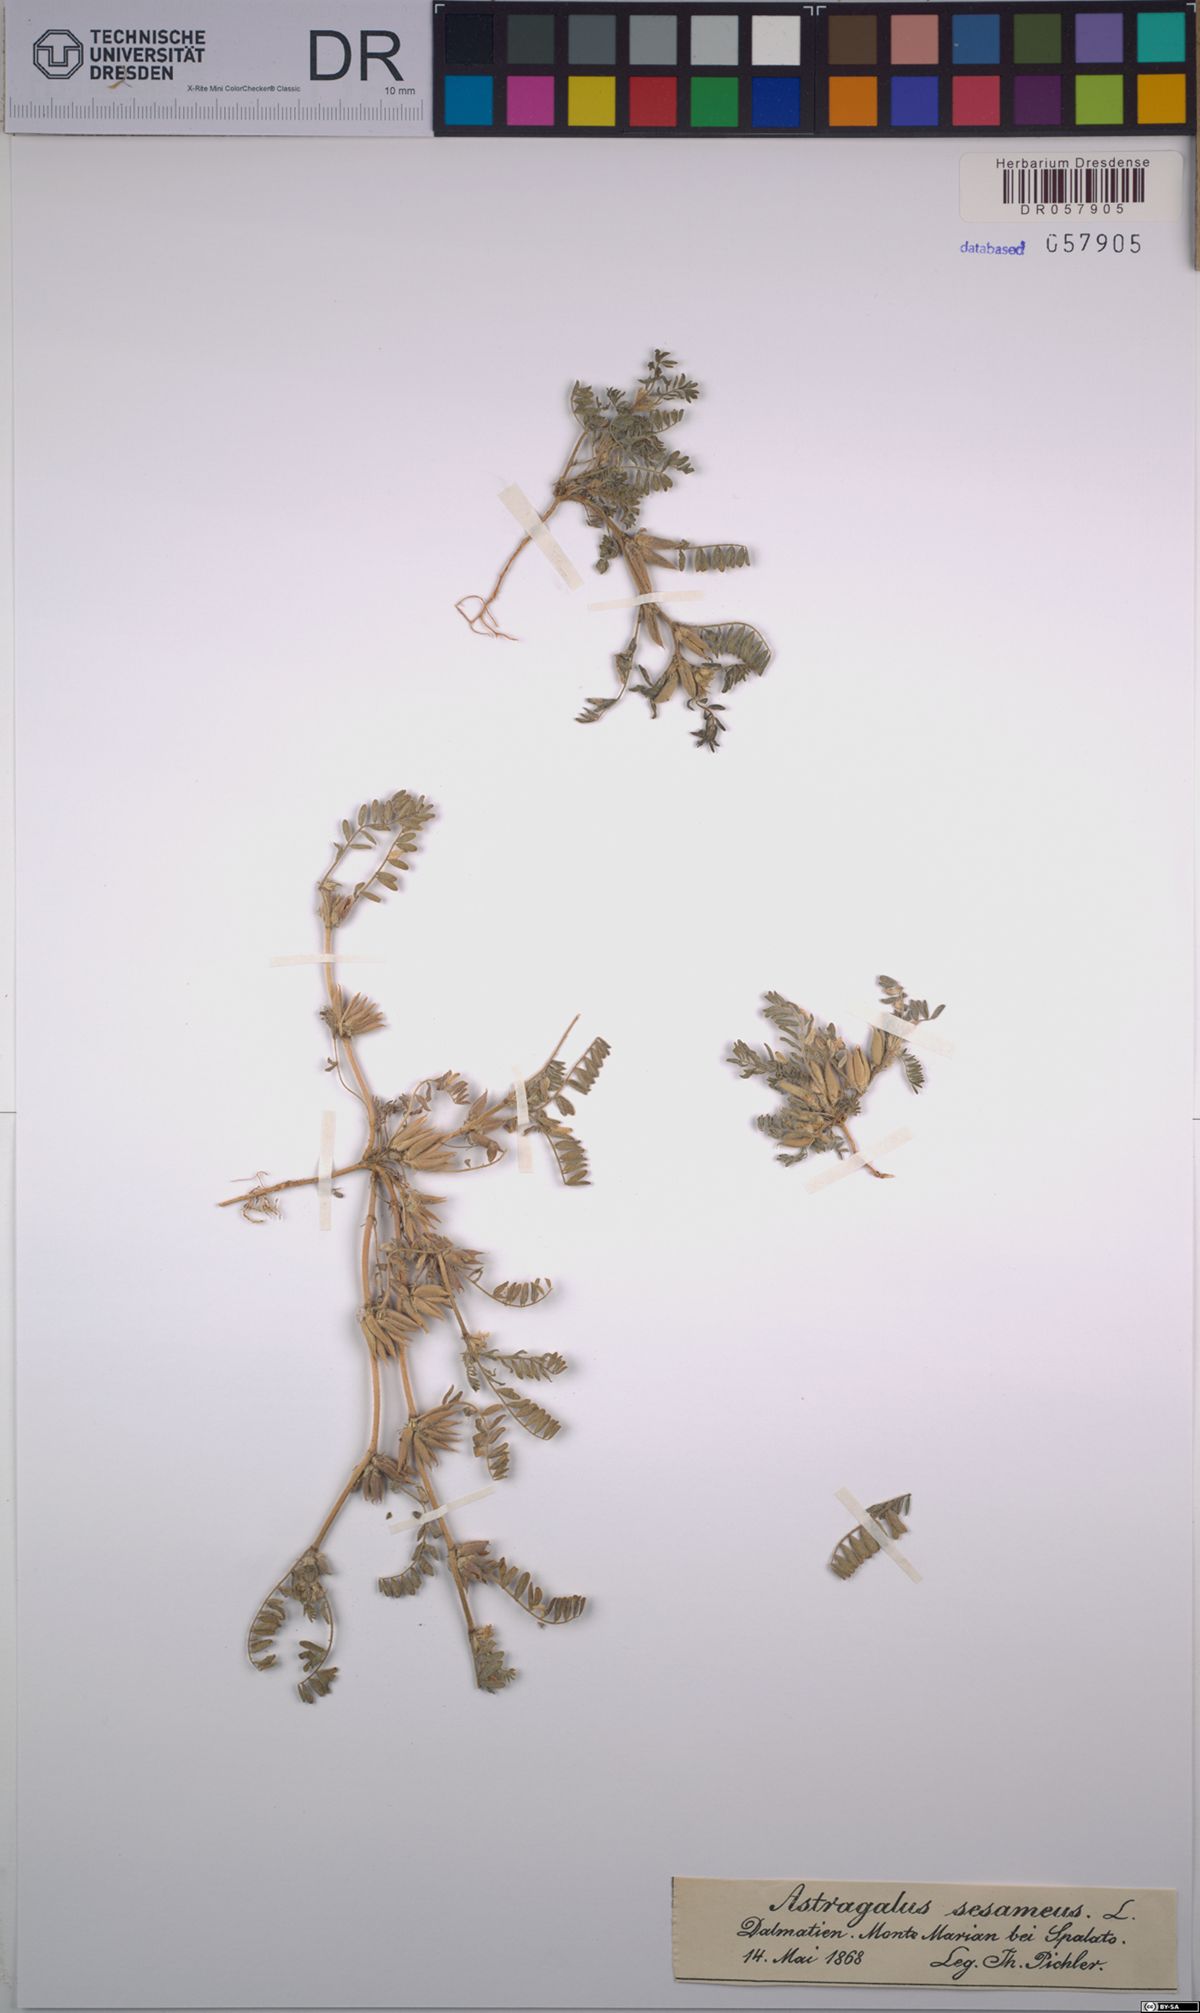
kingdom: Plantae
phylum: Tracheophyta
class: Magnoliopsida
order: Fabales
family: Fabaceae
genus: Astragalus
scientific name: Astragalus sesameus
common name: Purple milk-vetch
